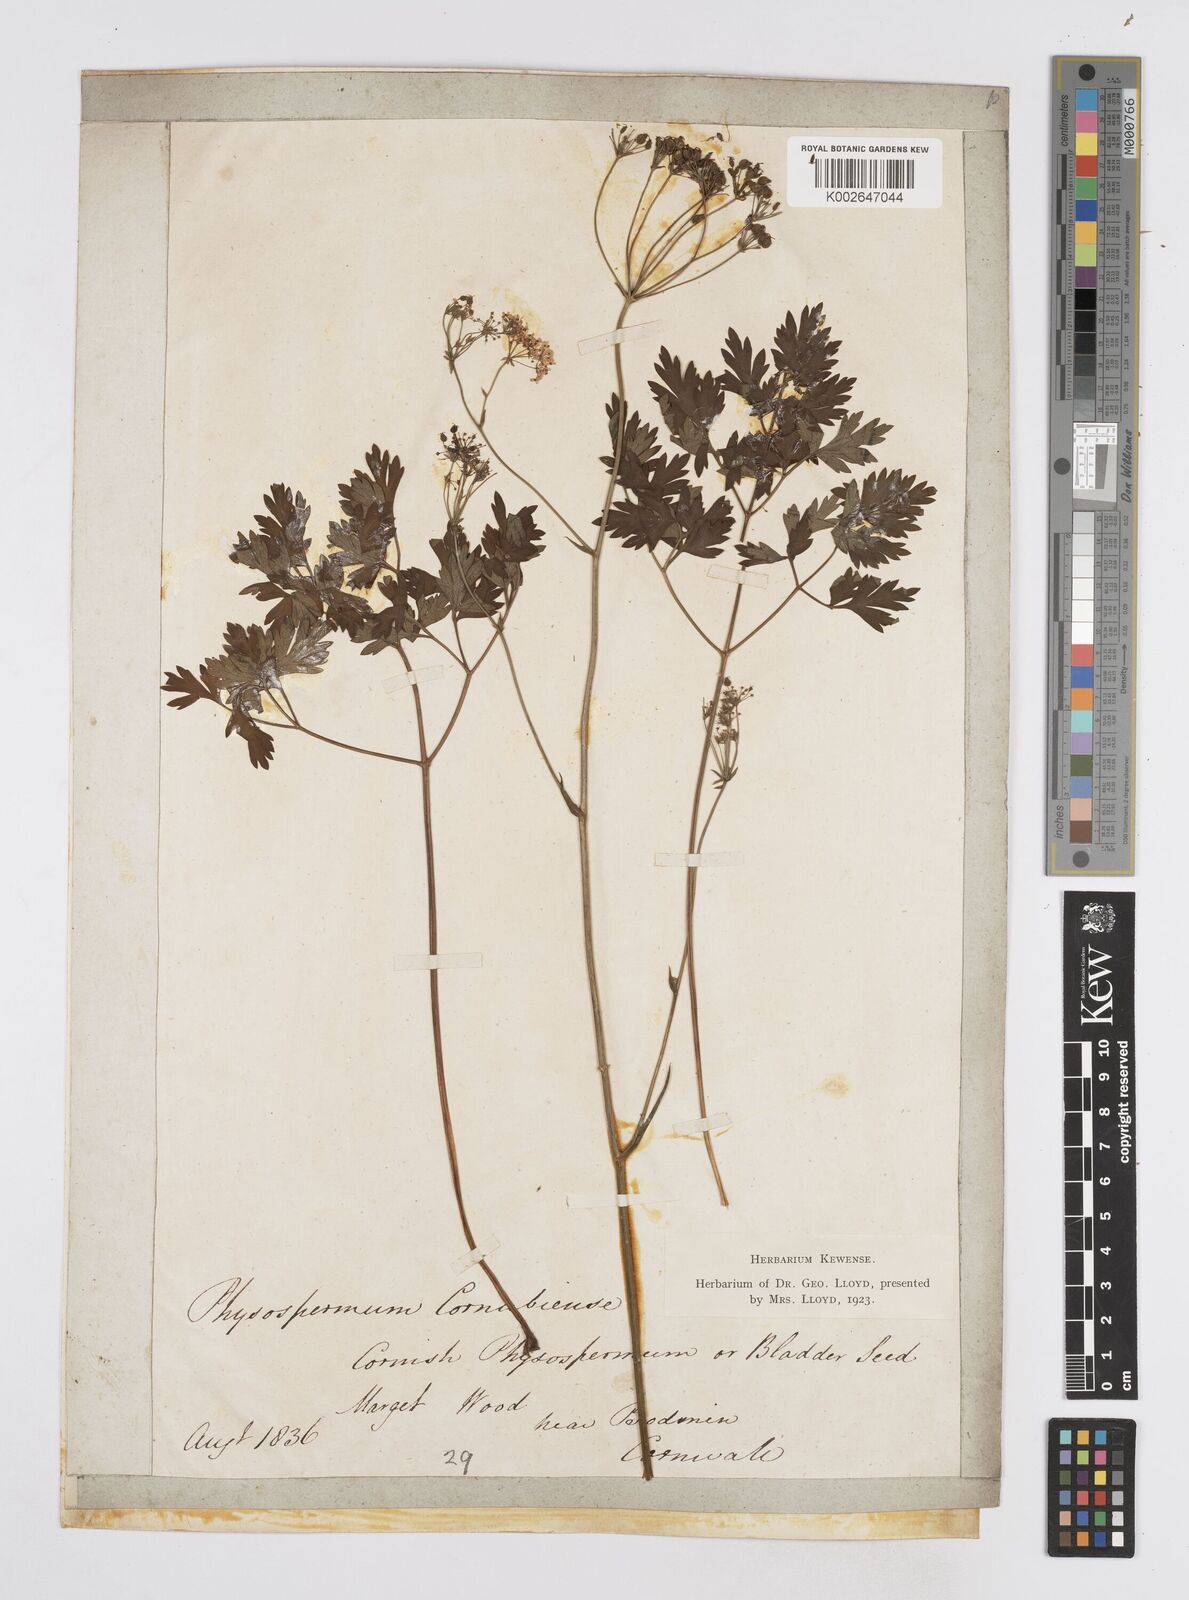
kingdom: Plantae
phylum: Tracheophyta
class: Magnoliopsida
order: Apiales
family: Apiaceae
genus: Physospermum
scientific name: Physospermum cornubiense
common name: Bladderseed
